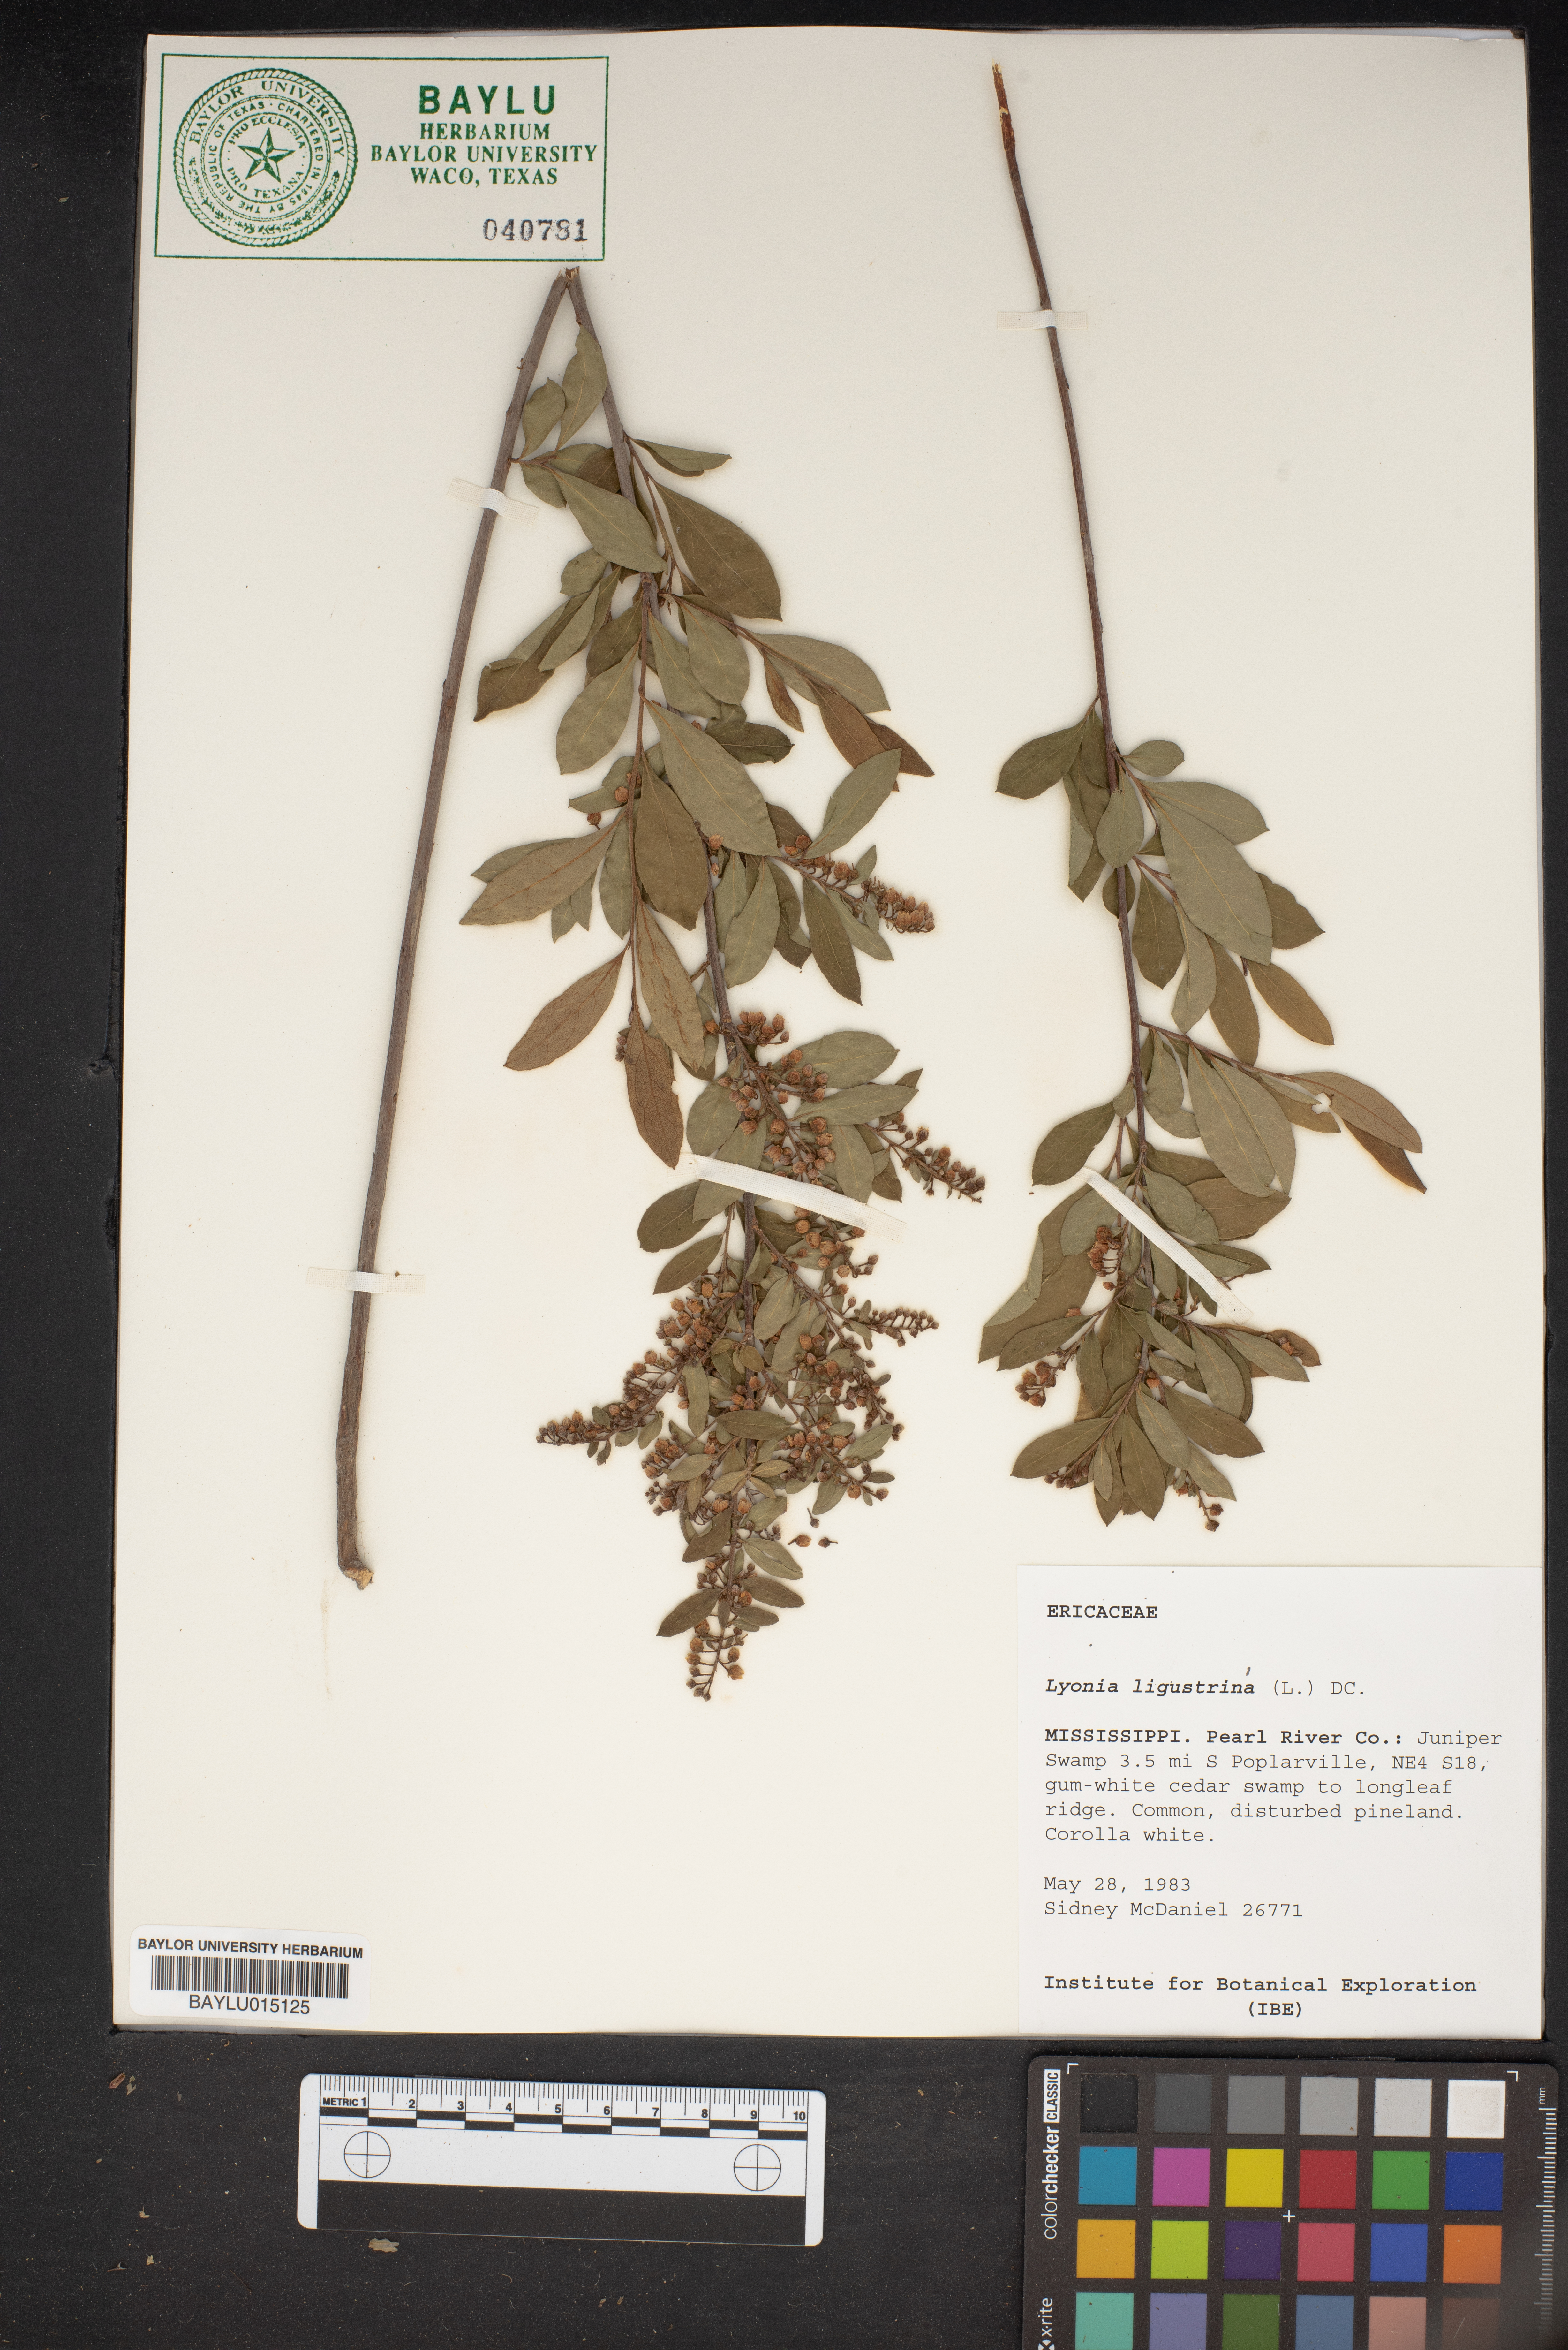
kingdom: Plantae
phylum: Tracheophyta
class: Magnoliopsida
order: Ericales
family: Ericaceae
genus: Lyonia
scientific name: Lyonia ligustrina
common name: Maleberry
